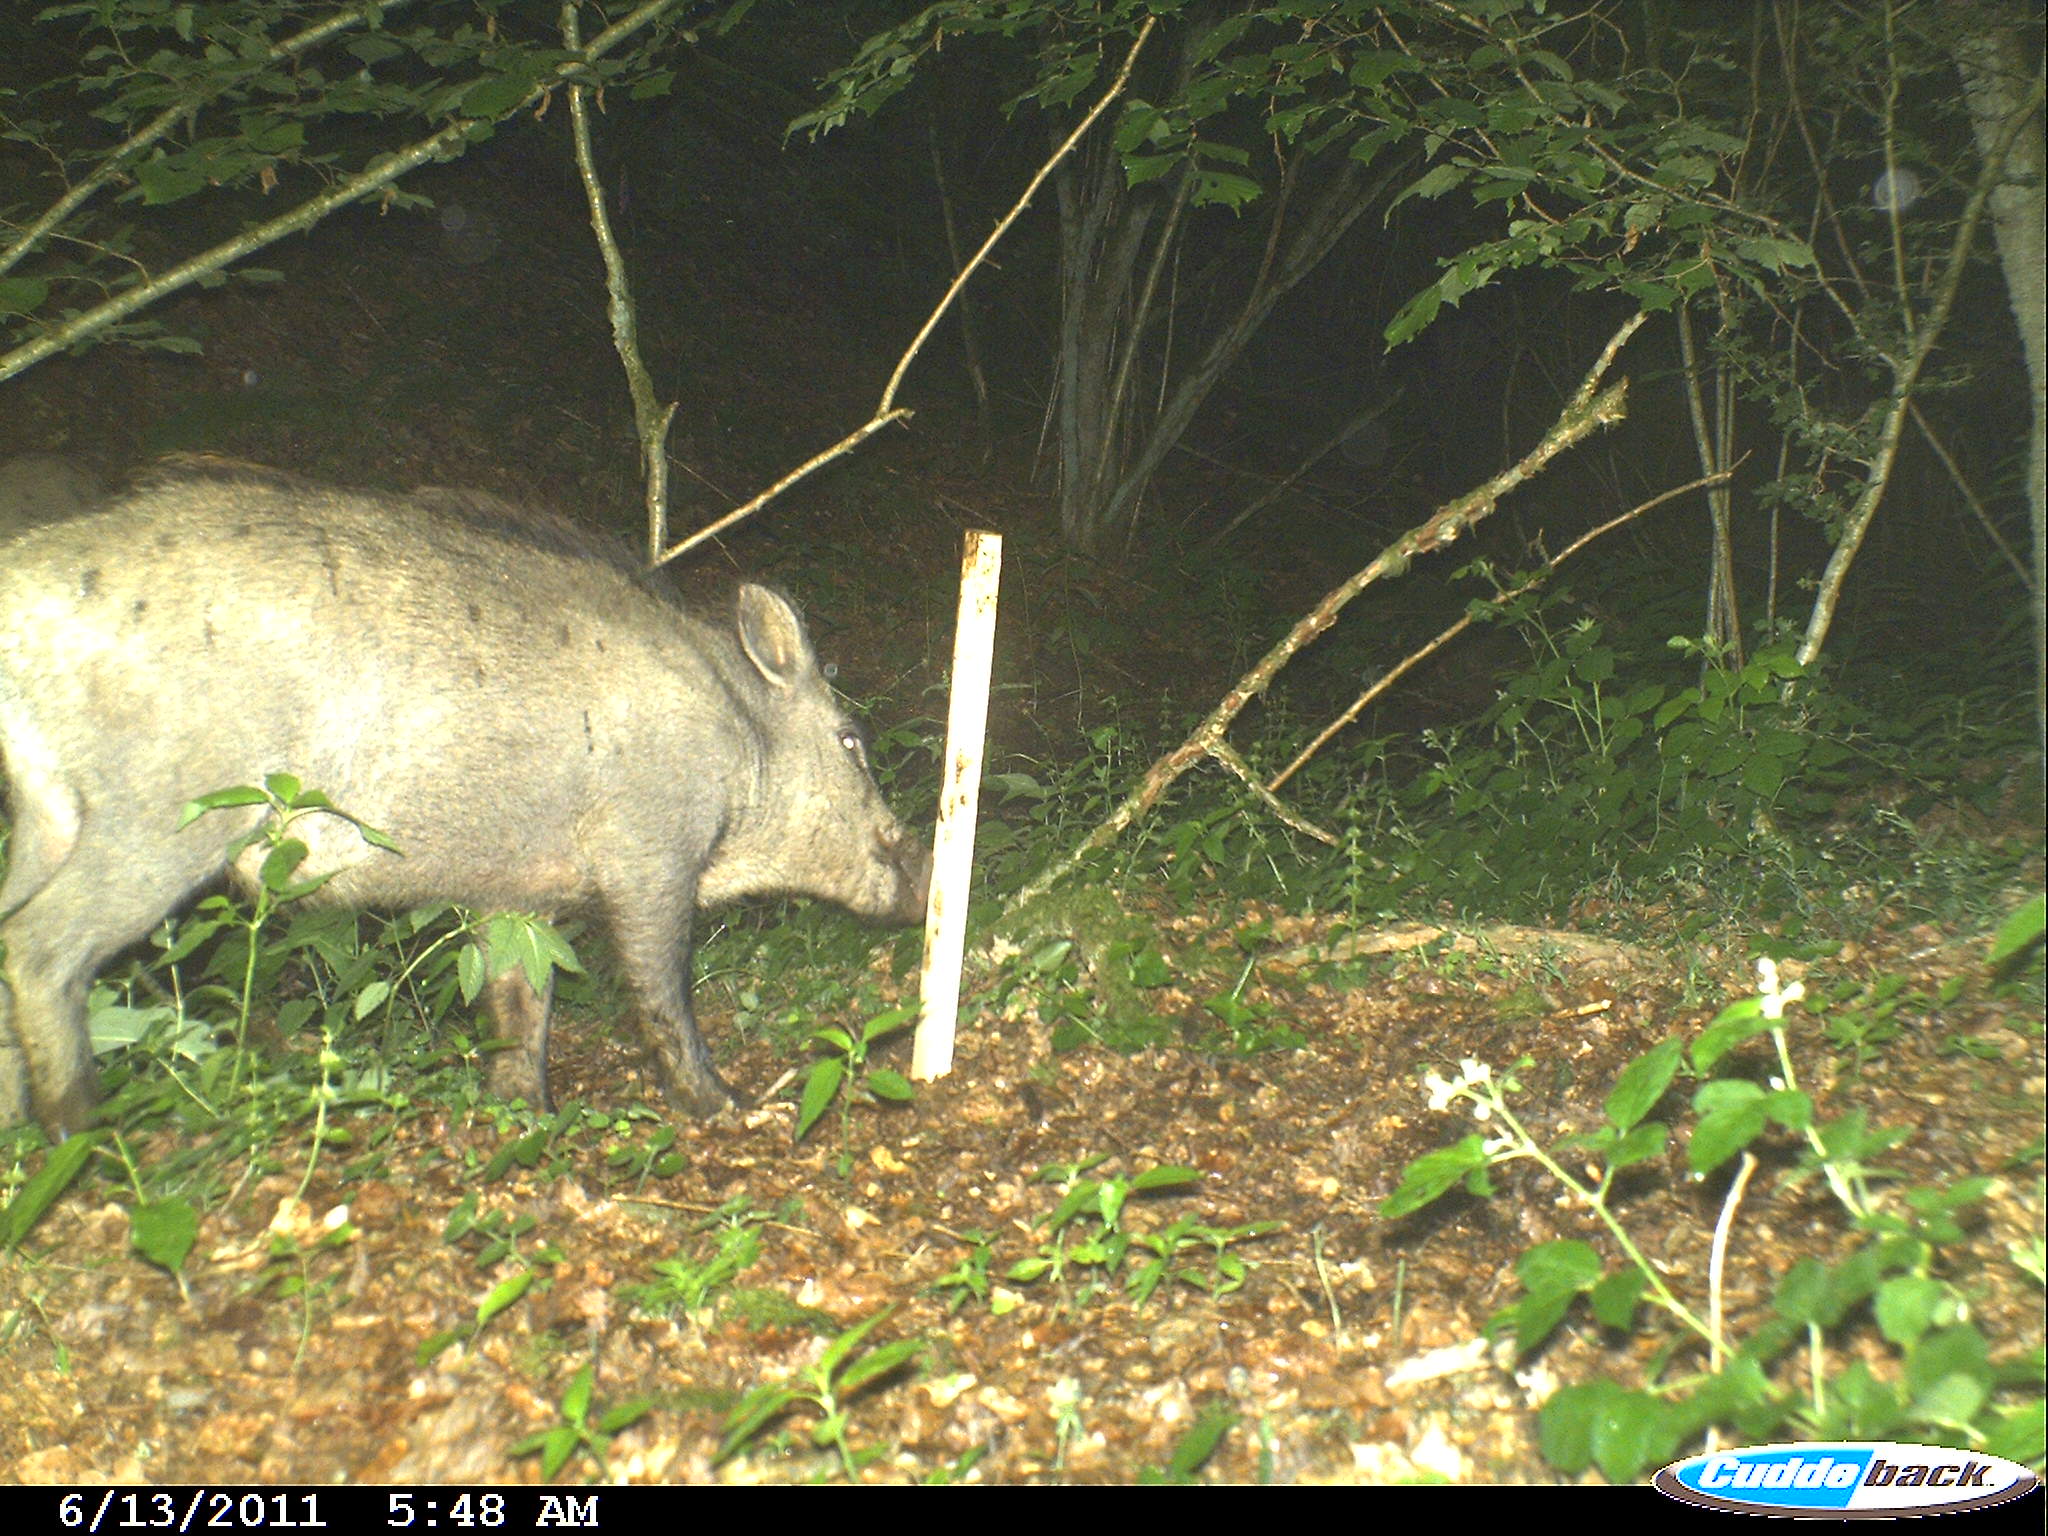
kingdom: Animalia
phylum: Chordata
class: Mammalia
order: Artiodactyla
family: Suidae
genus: Sus
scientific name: Sus scrofa
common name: Wild boar
